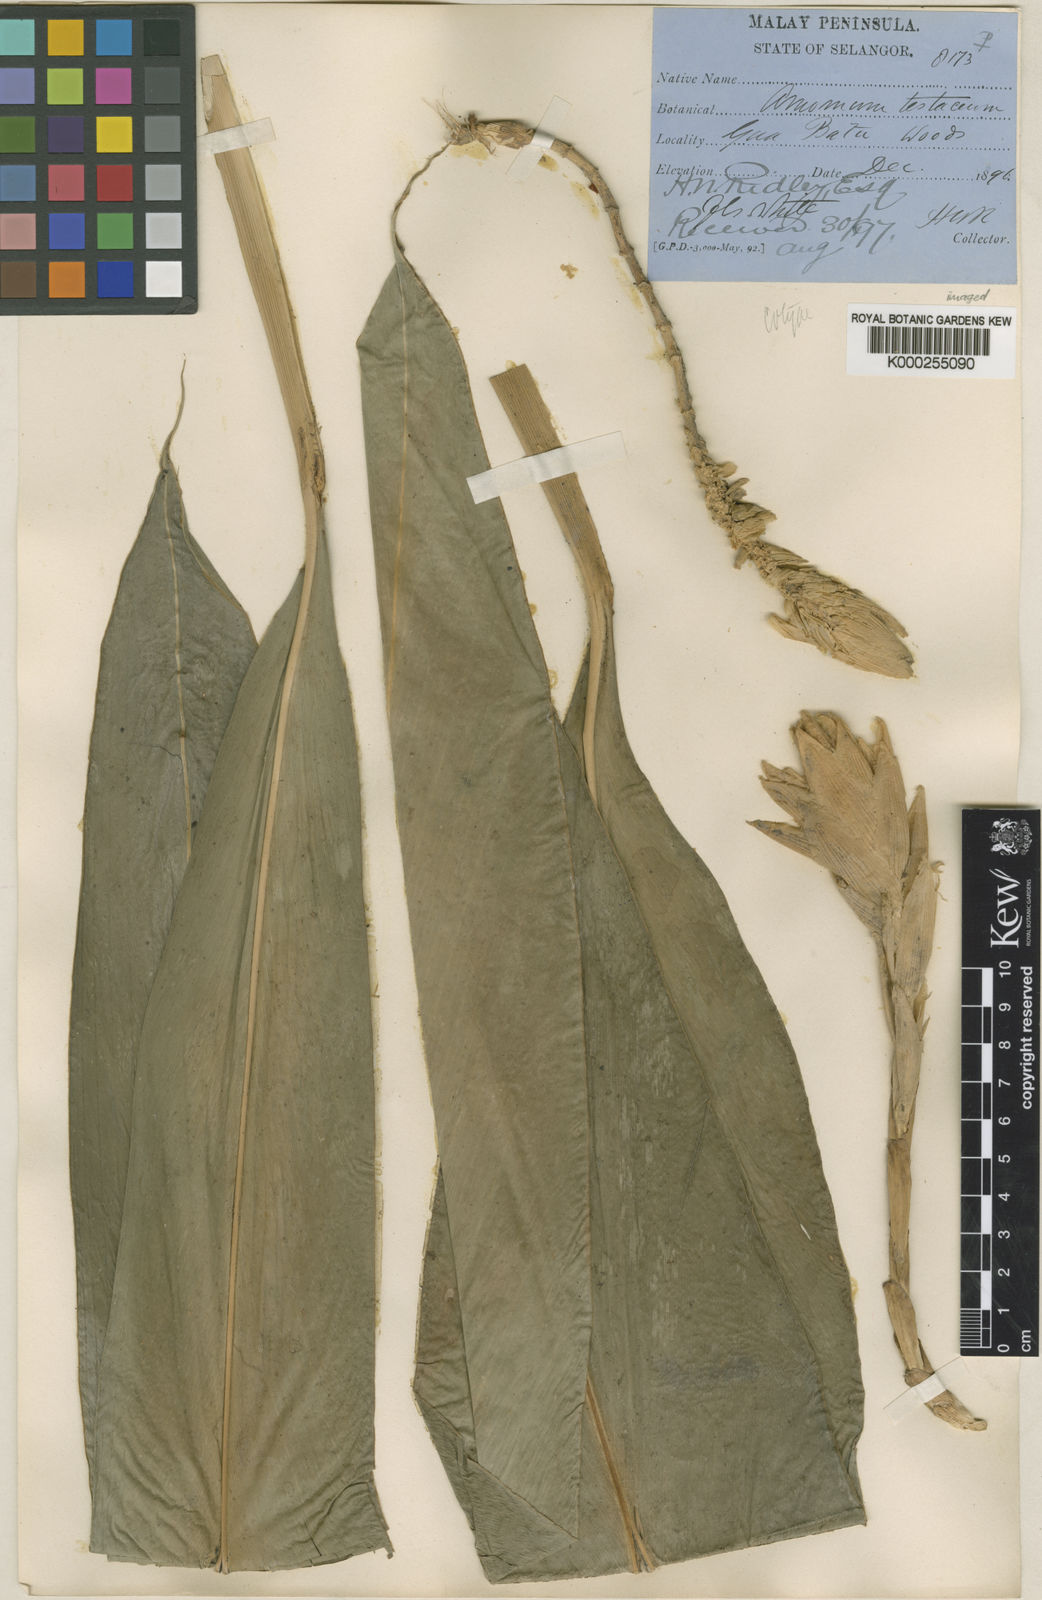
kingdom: Plantae
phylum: Tracheophyta
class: Liliopsida
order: Zingiberales
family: Zingiberaceae
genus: Wurfbainia
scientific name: Wurfbainia testacea
